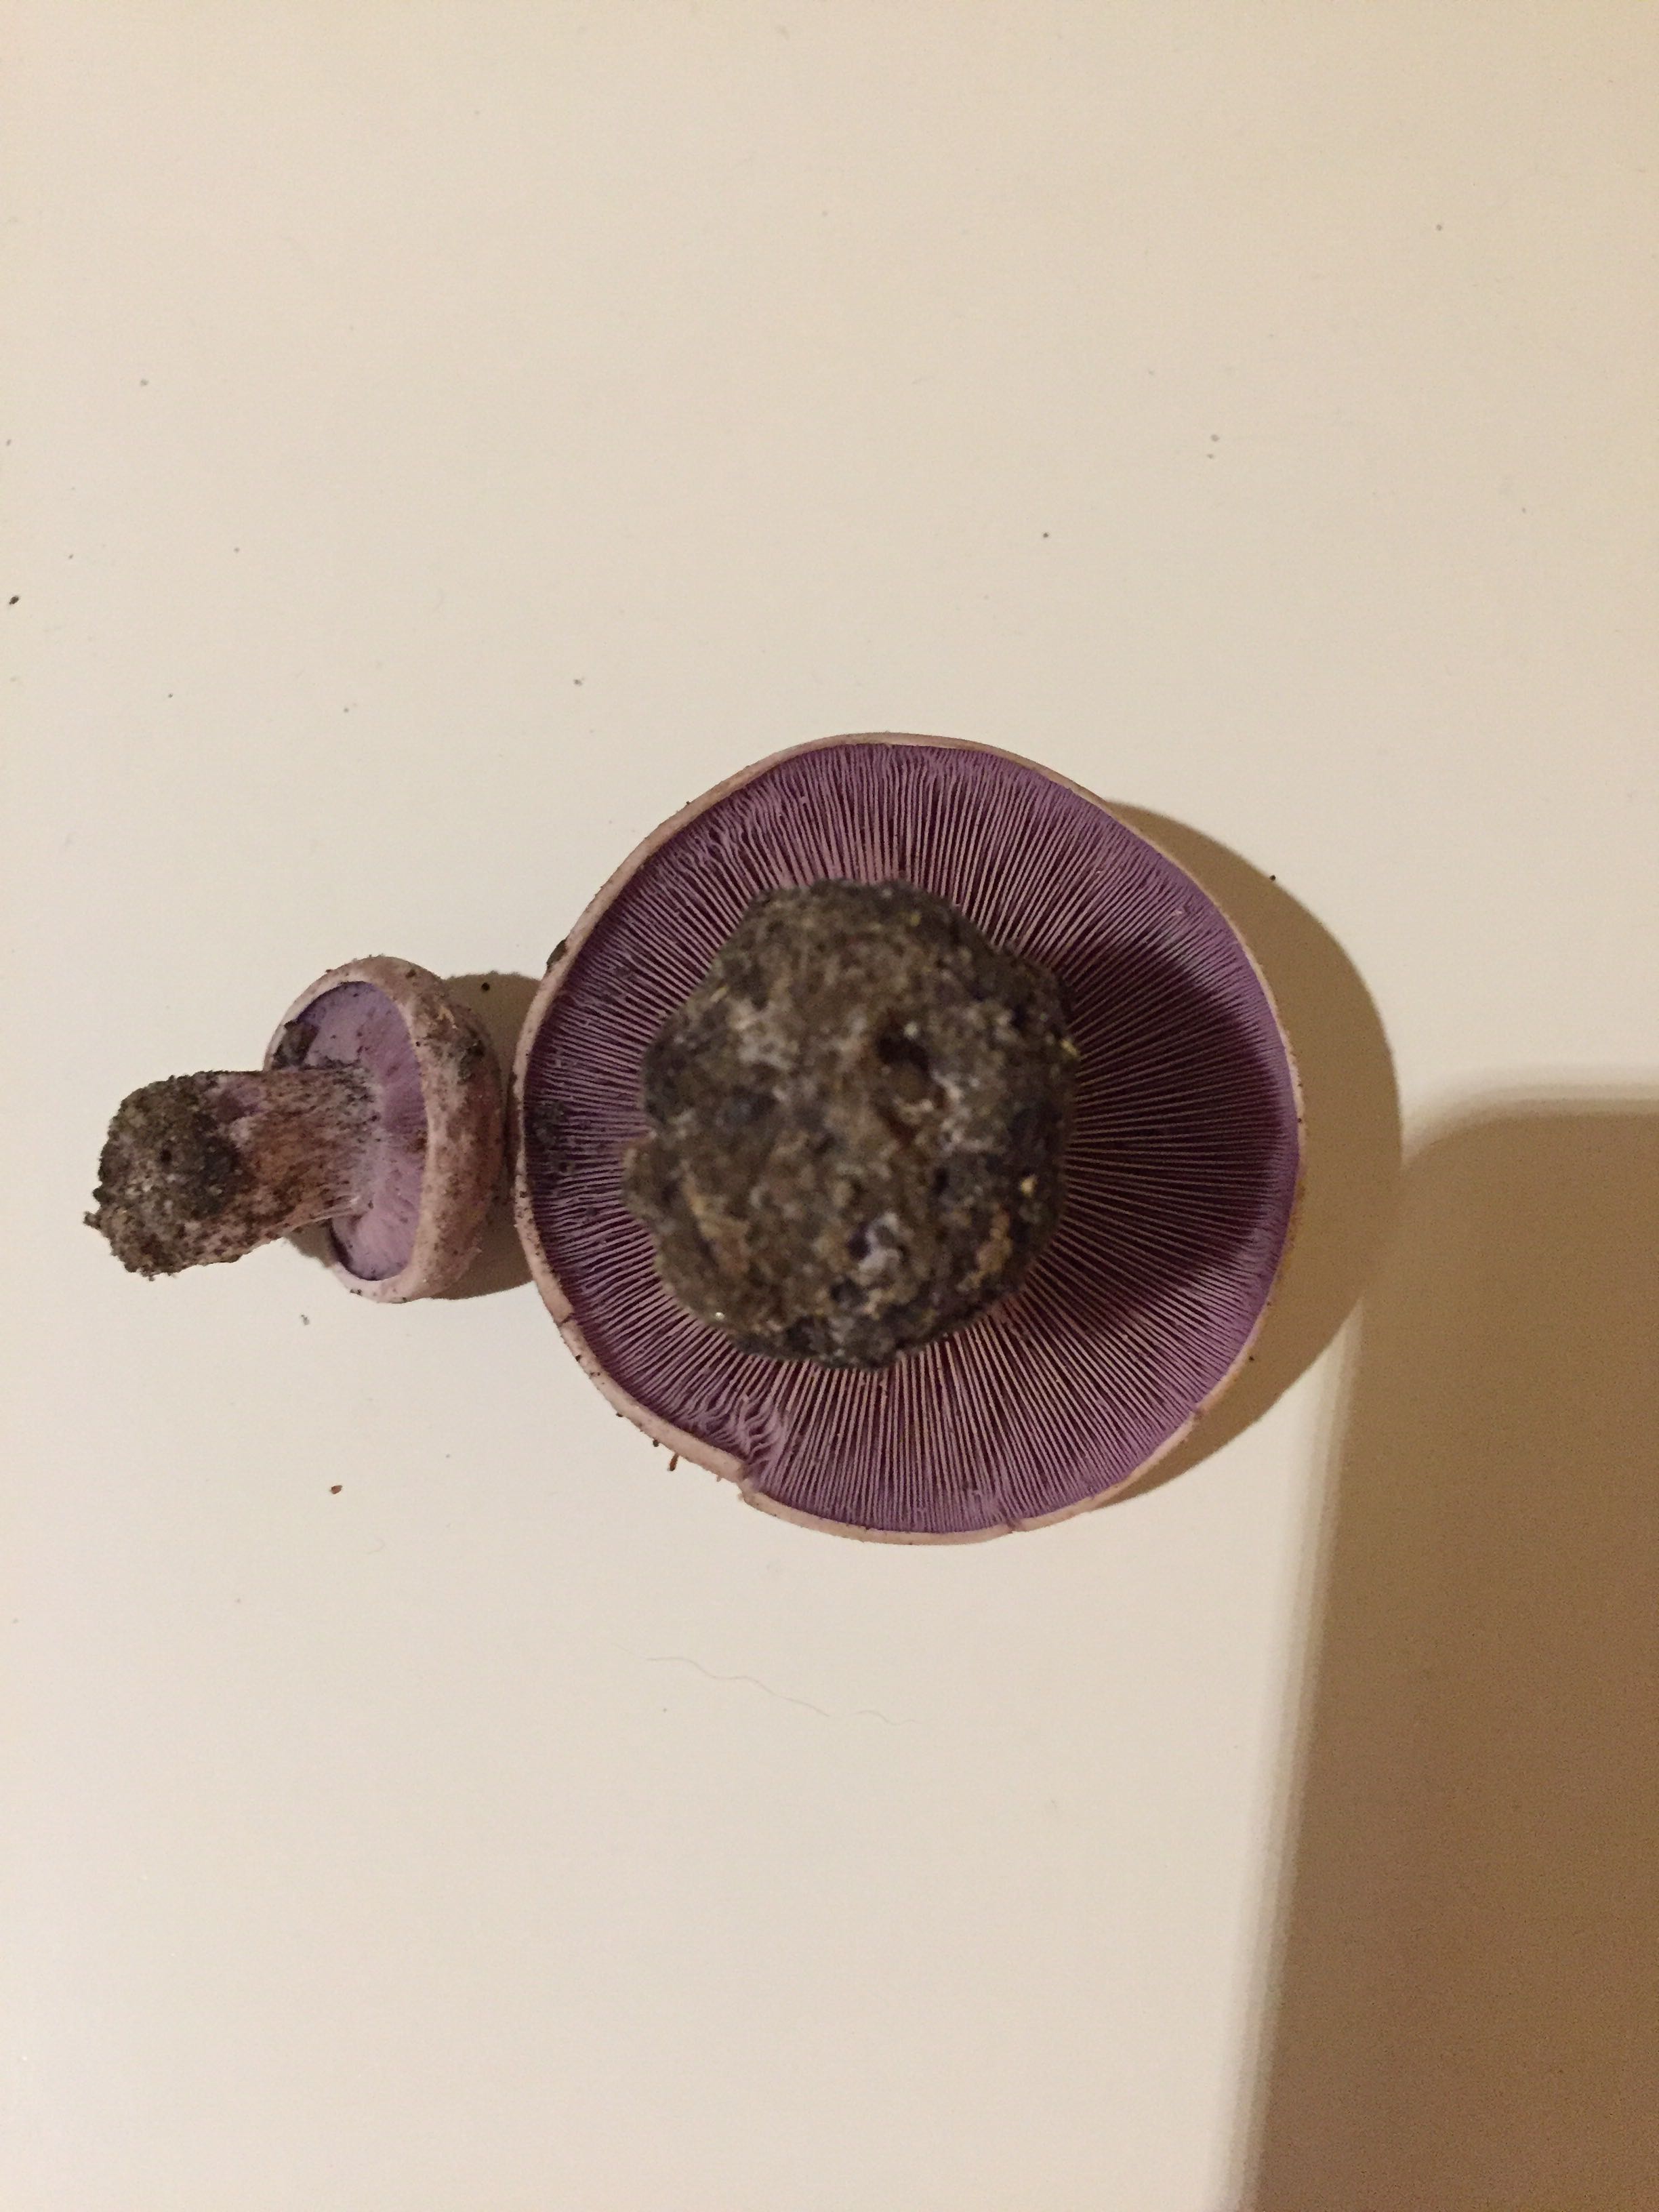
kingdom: Fungi
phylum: Basidiomycota
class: Agaricomycetes
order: Agaricales
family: Tricholomataceae
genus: Lepista
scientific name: Lepista nuda
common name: violet hekseringshat
